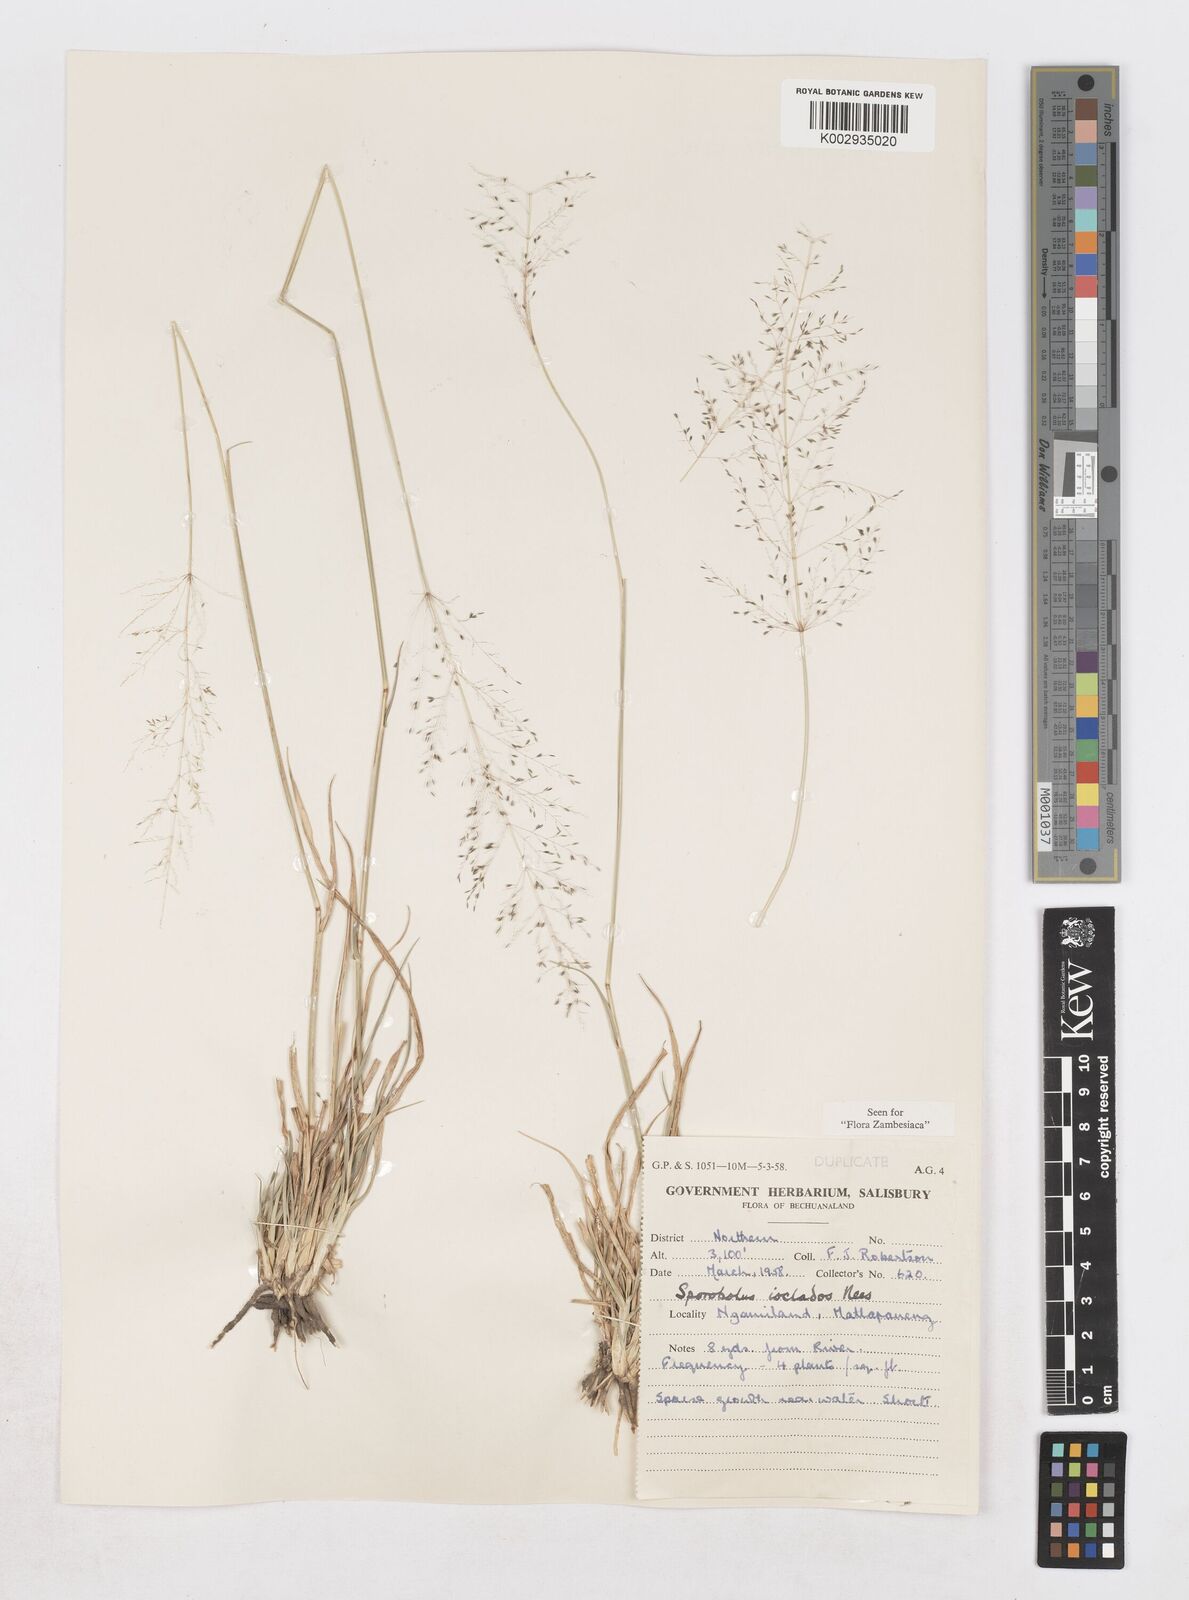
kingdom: Plantae
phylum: Tracheophyta
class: Liliopsida
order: Poales
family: Poaceae
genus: Sporobolus
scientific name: Sporobolus ioclados
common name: Pan dropseed
